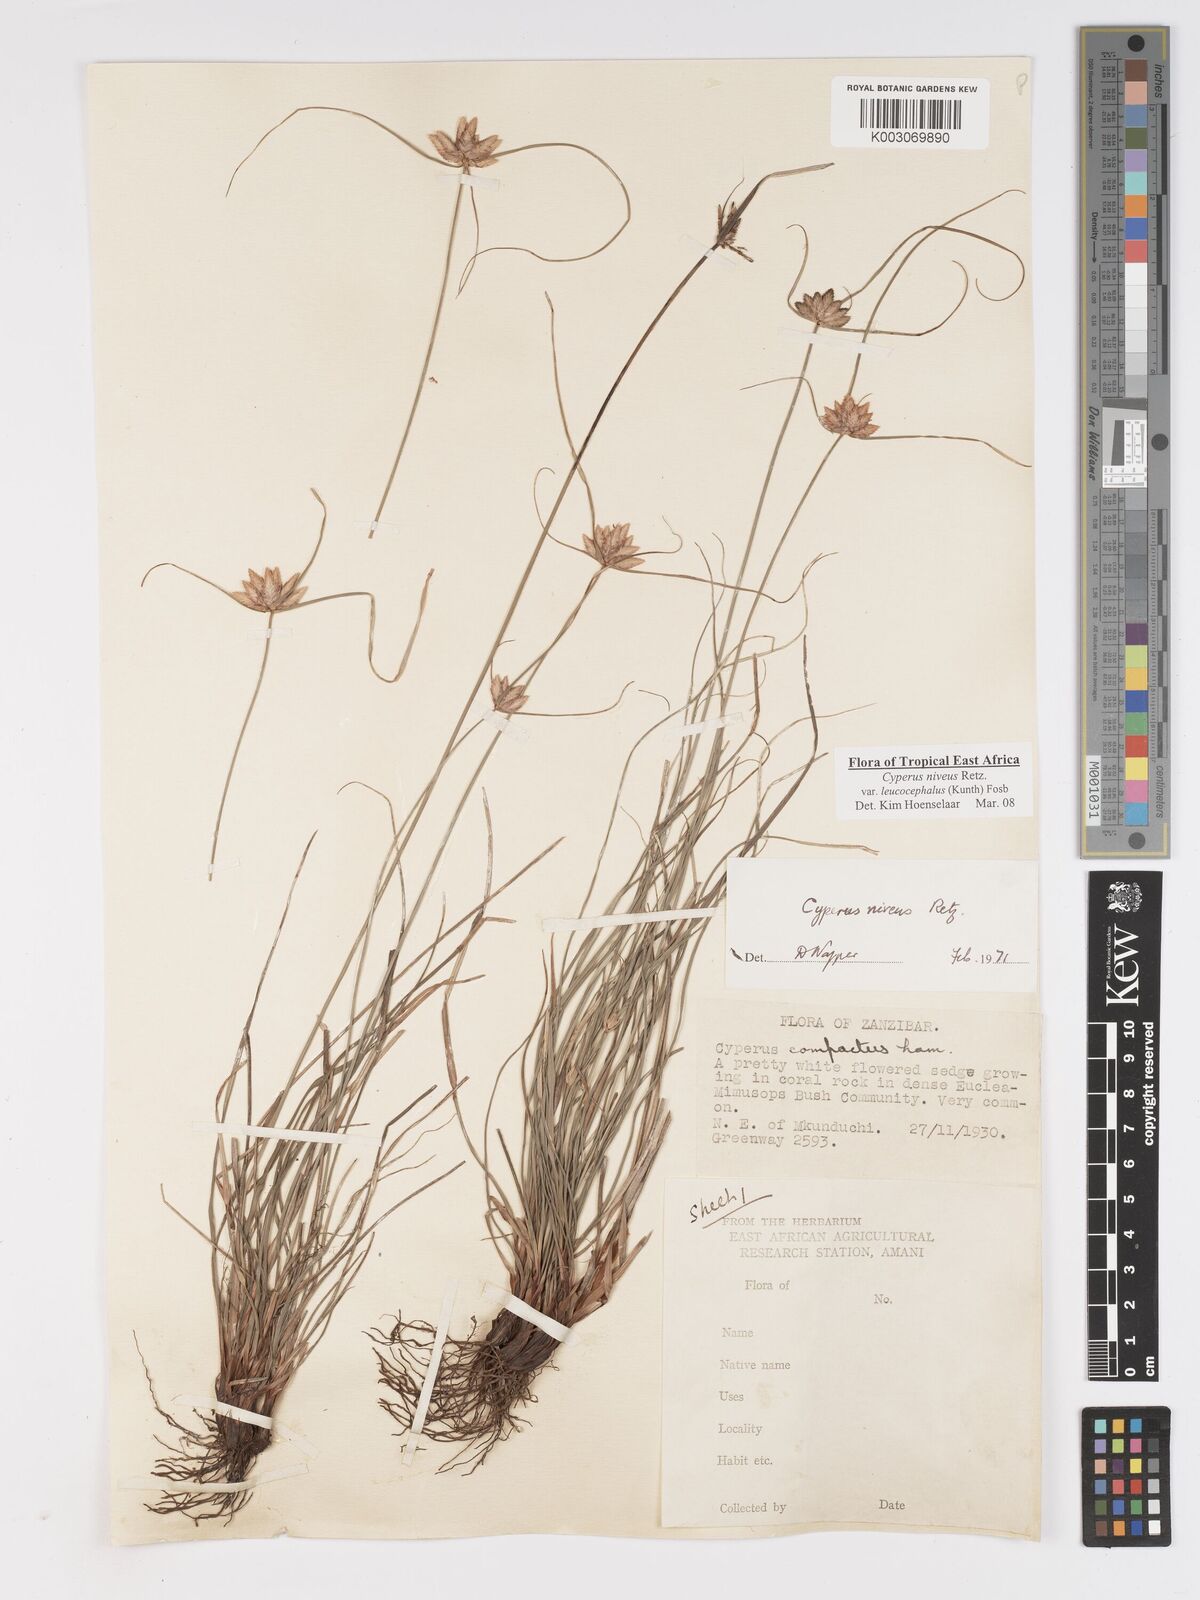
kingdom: Plantae
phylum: Tracheophyta
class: Liliopsida
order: Poales
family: Cyperaceae
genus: Cyperus
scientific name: Cyperus niveus
